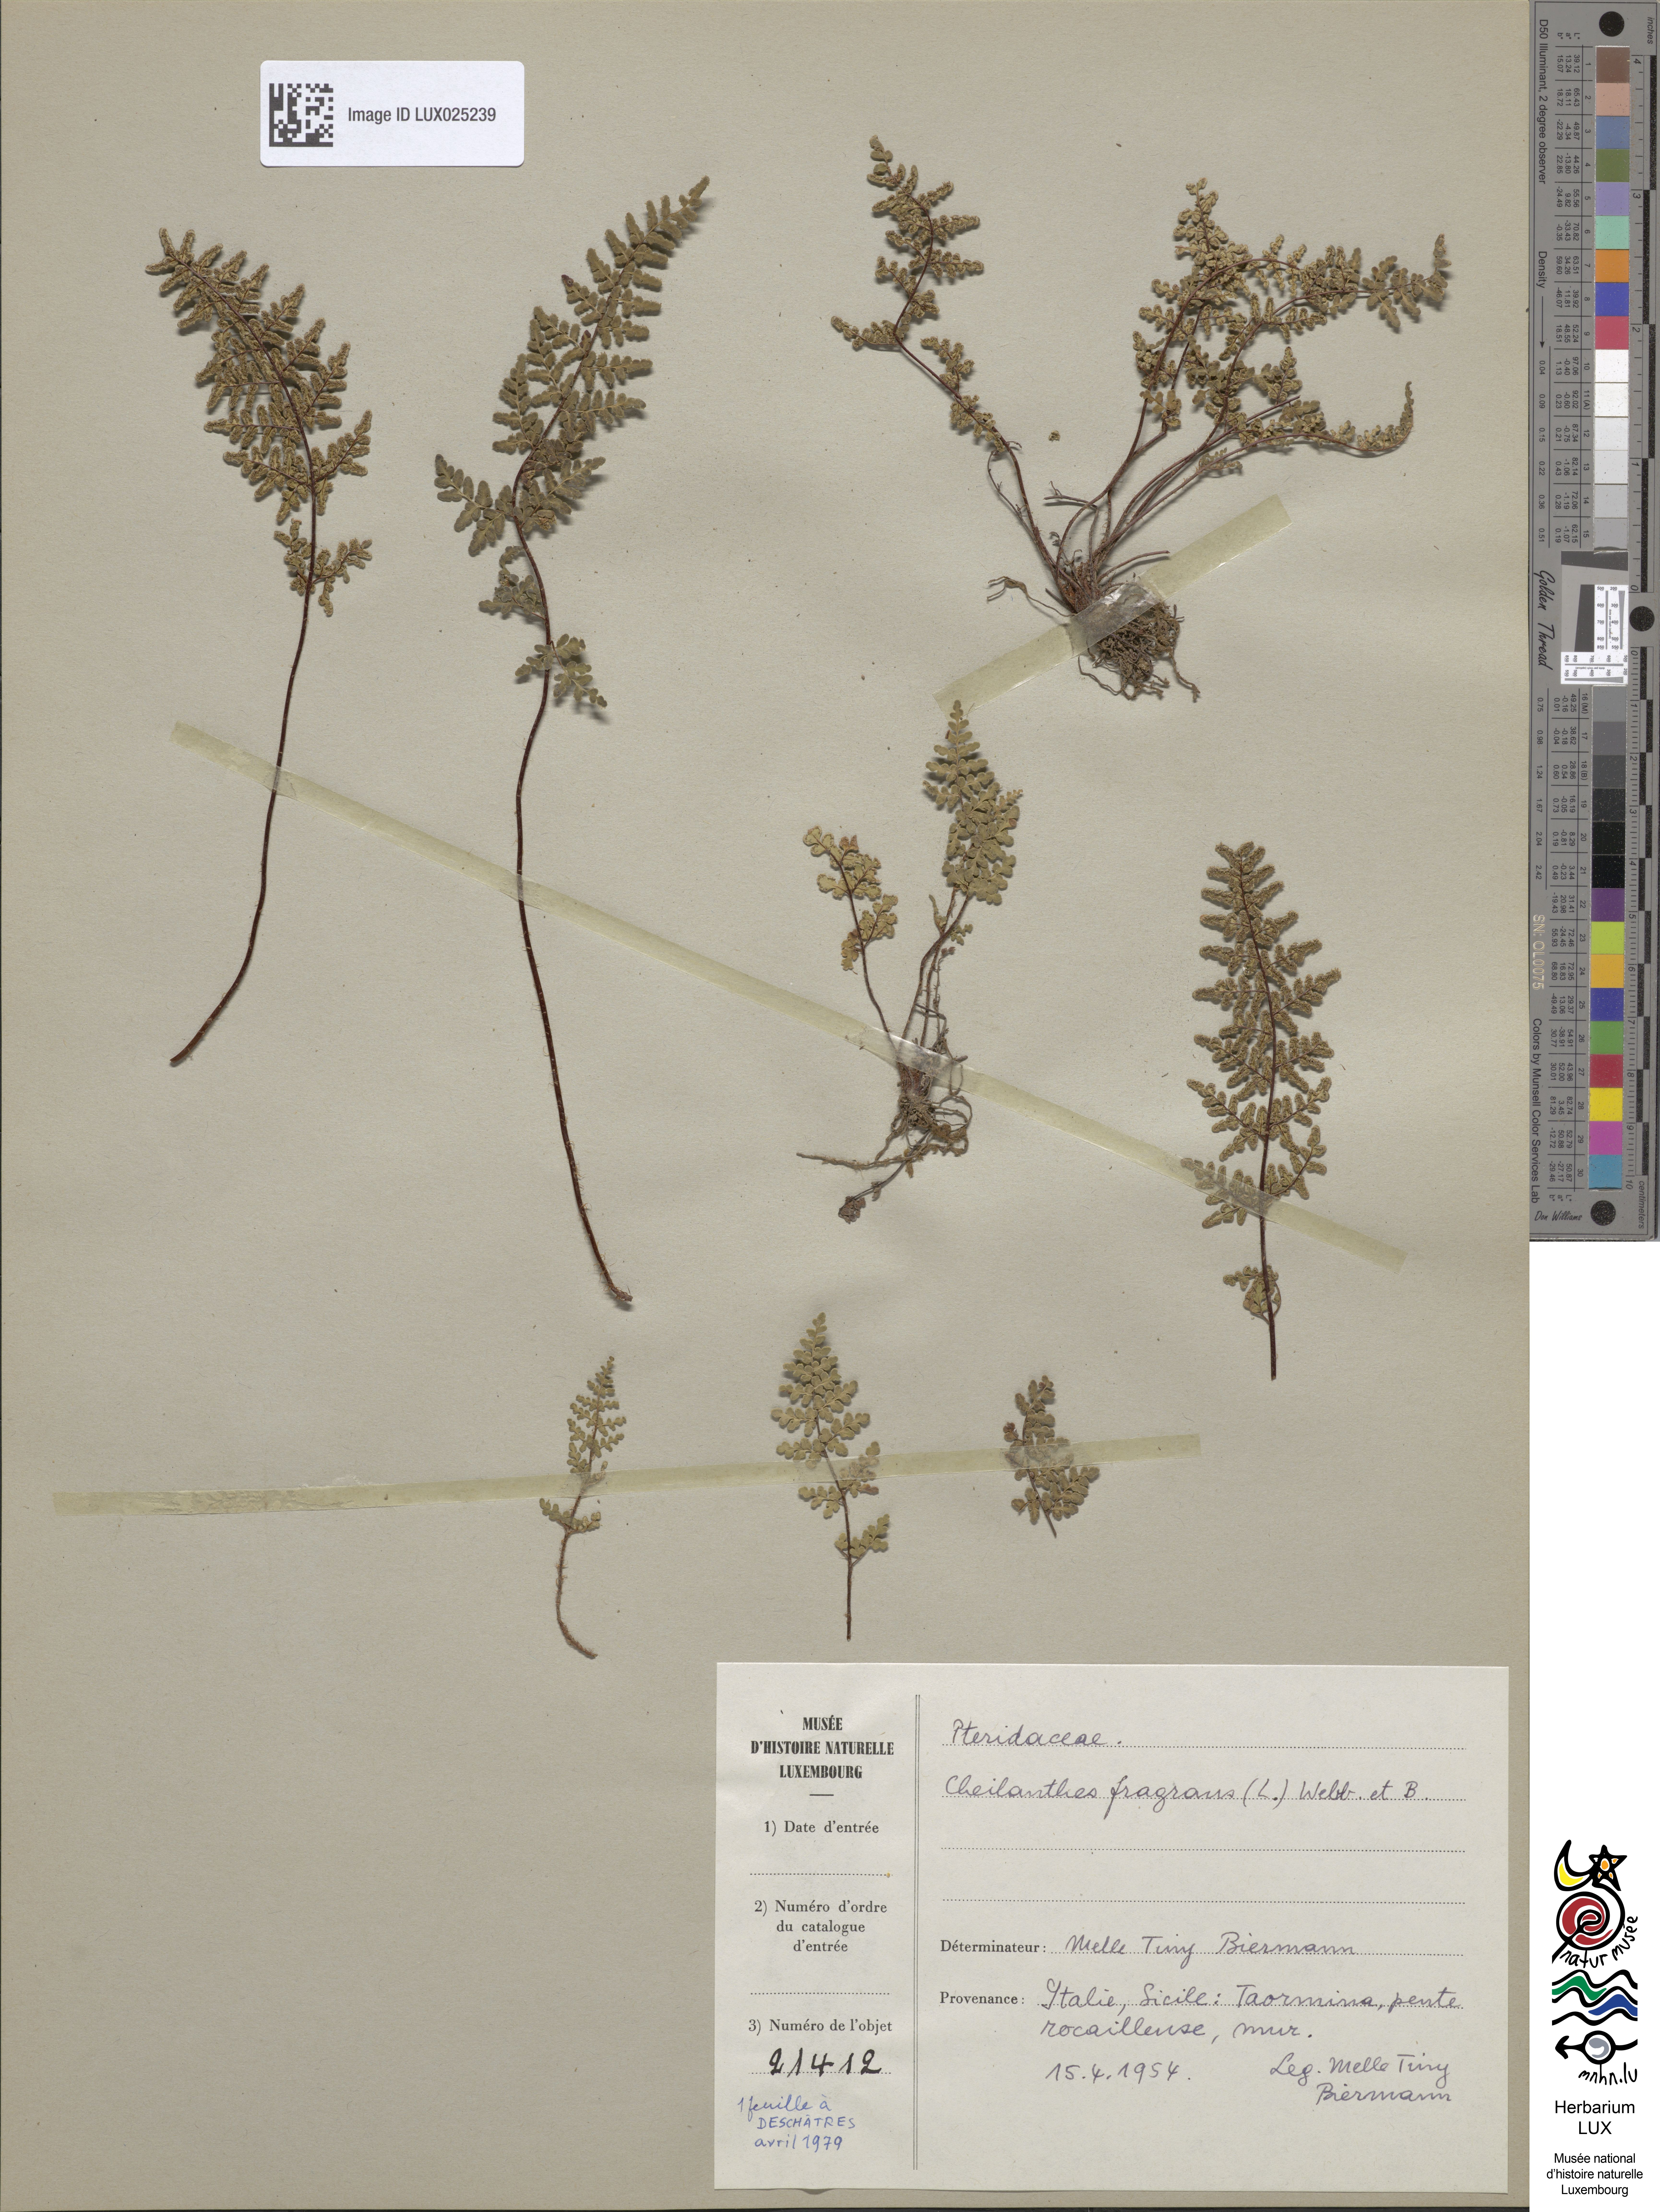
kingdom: Plantae
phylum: Tracheophyta
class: Polypodiopsida
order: Polypodiales
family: Pteridaceae
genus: Oeosporangium
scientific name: Oeosporangium pteridioides
